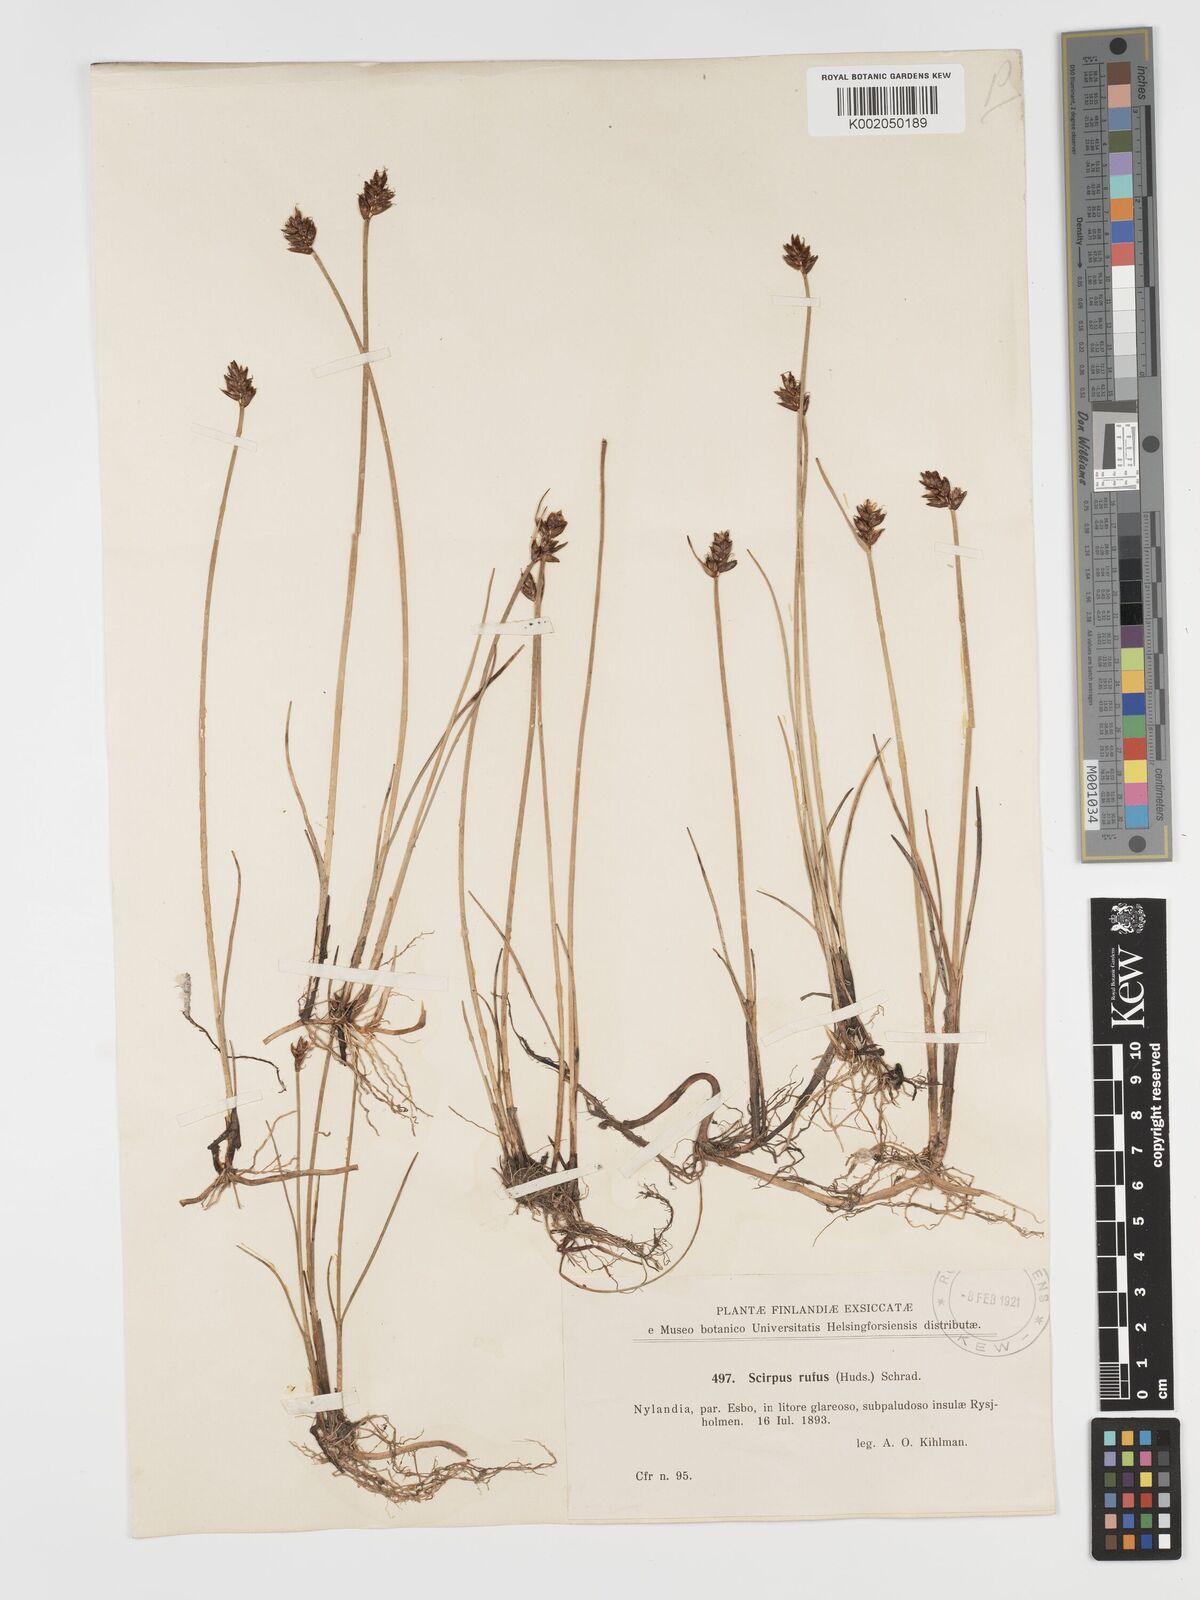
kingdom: Plantae
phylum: Tracheophyta
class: Liliopsida
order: Poales
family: Cyperaceae
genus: Blysmus
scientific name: Blysmus rufus
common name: Saltmarsh flat-sedge
